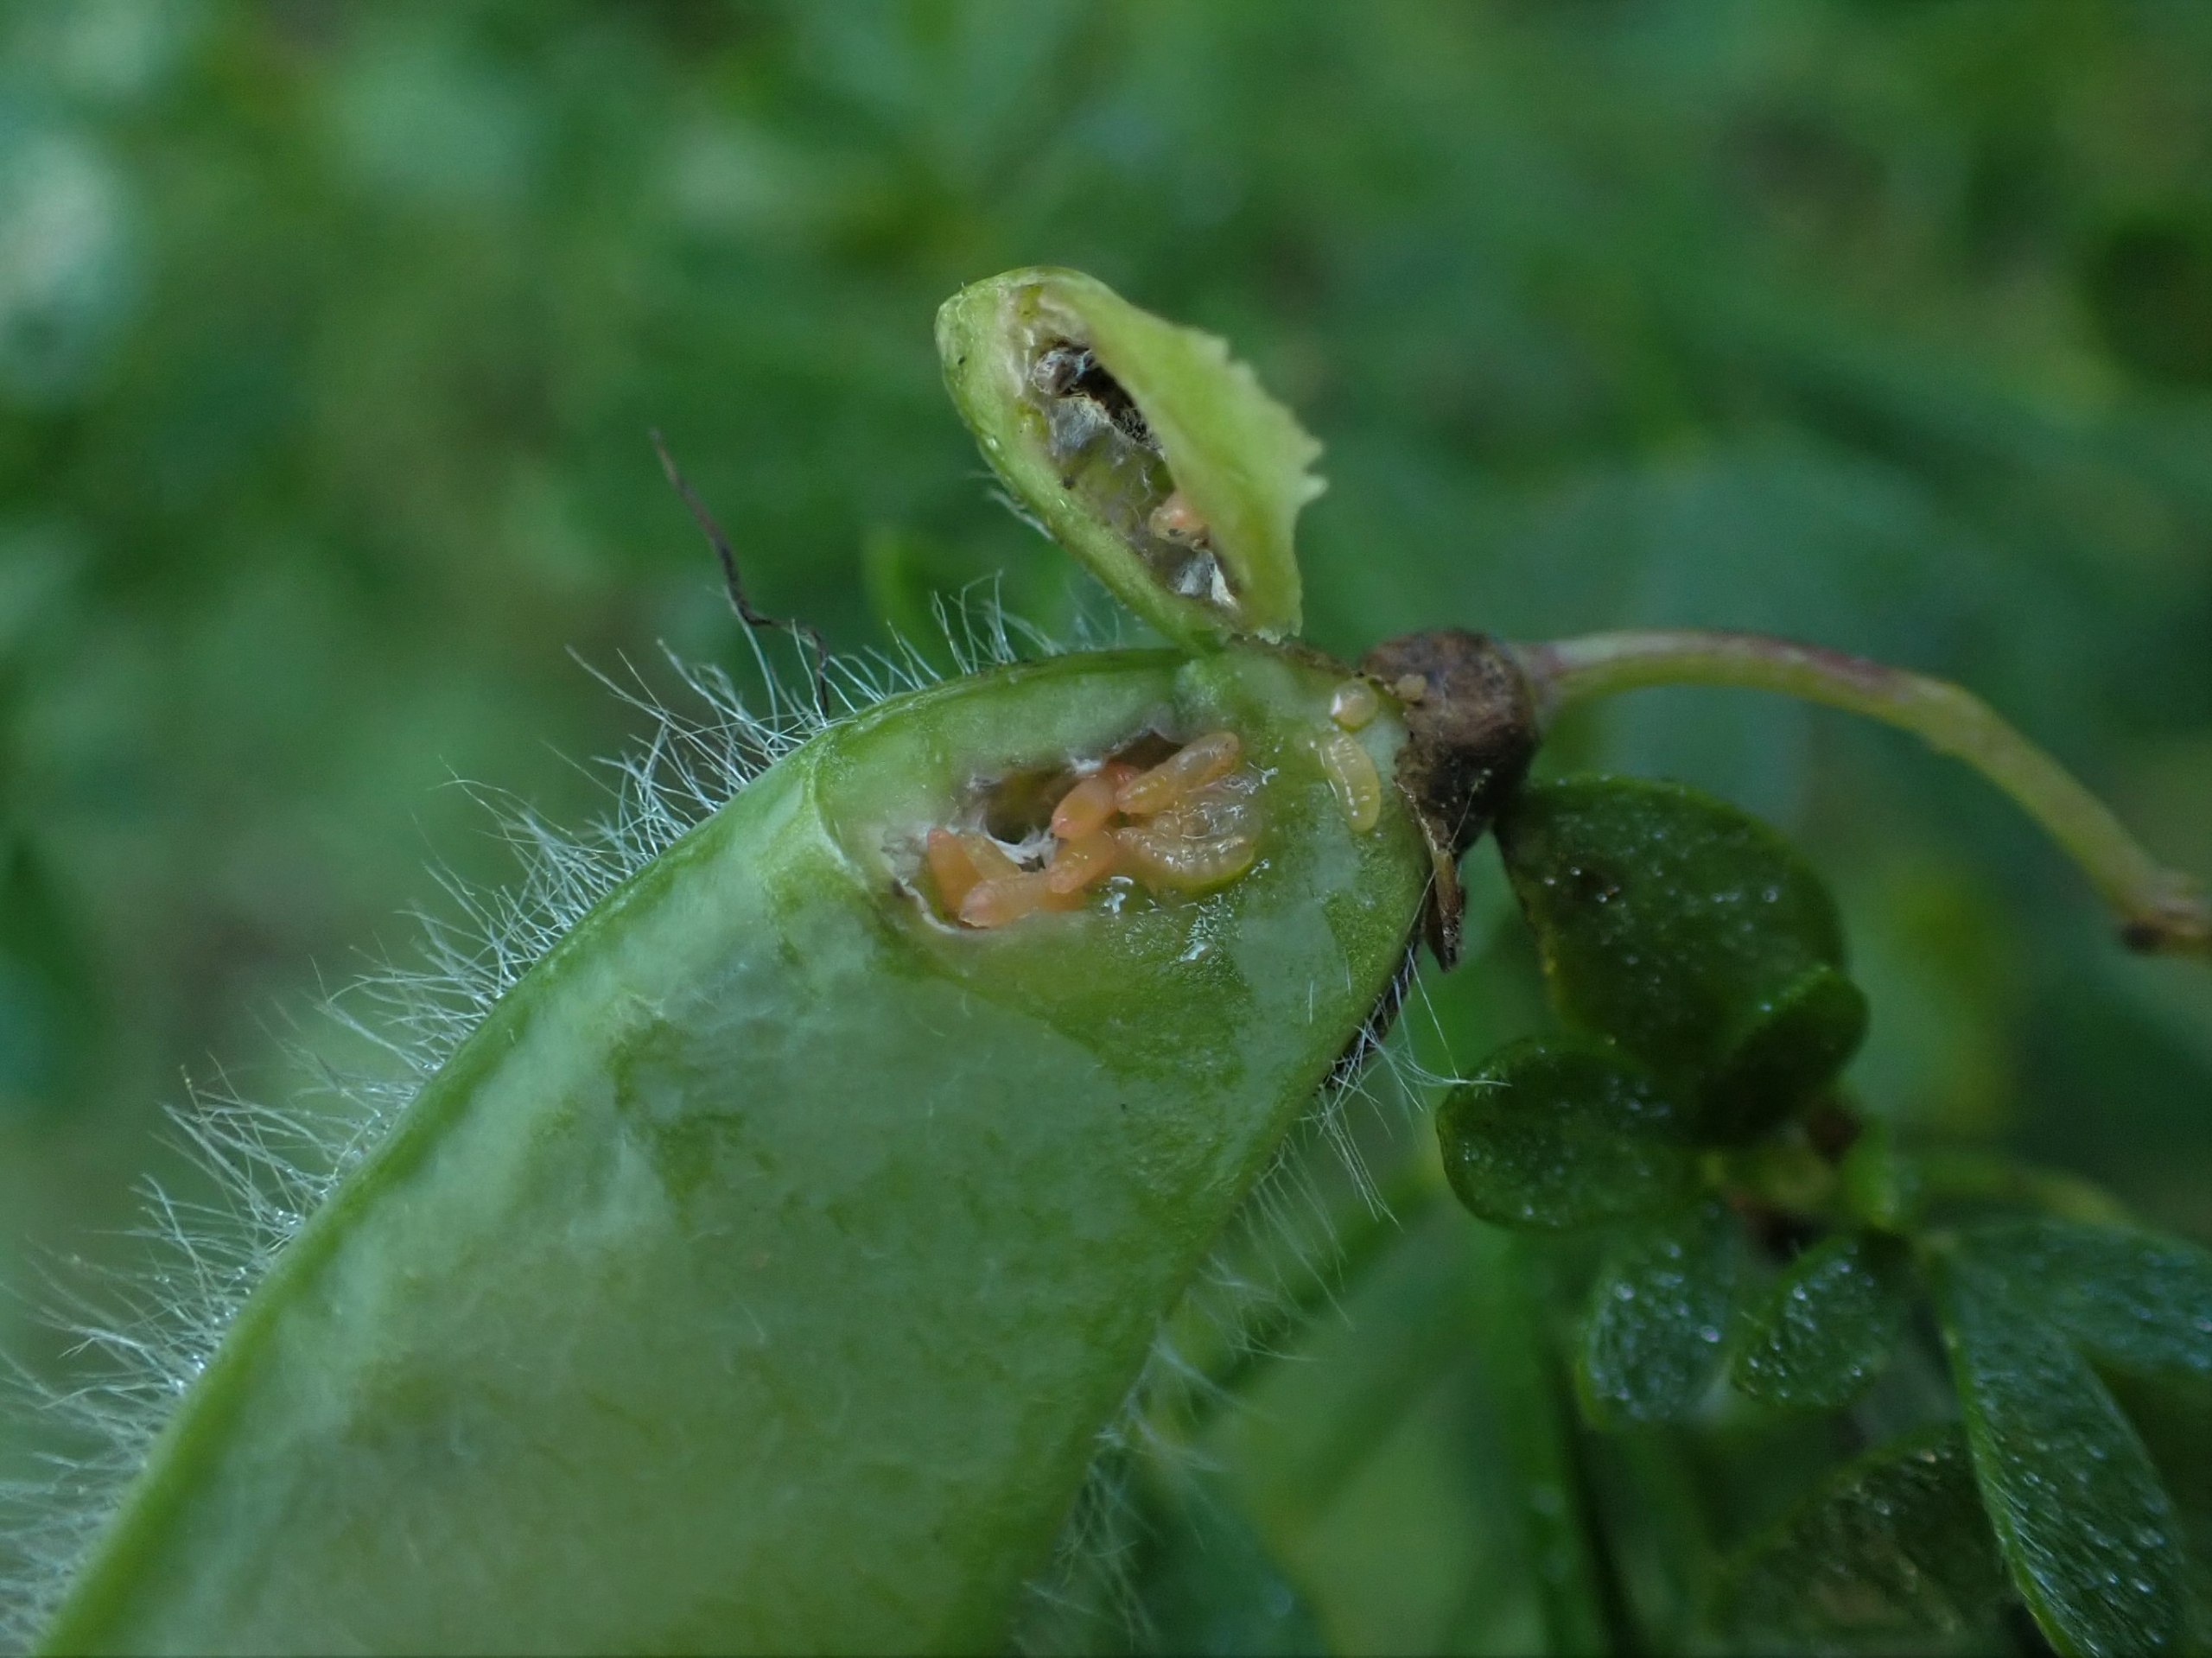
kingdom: Animalia
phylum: Arthropoda
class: Insecta
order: Diptera
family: Cecidomyiidae
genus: Trotteria
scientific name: Trotteria obtusa
